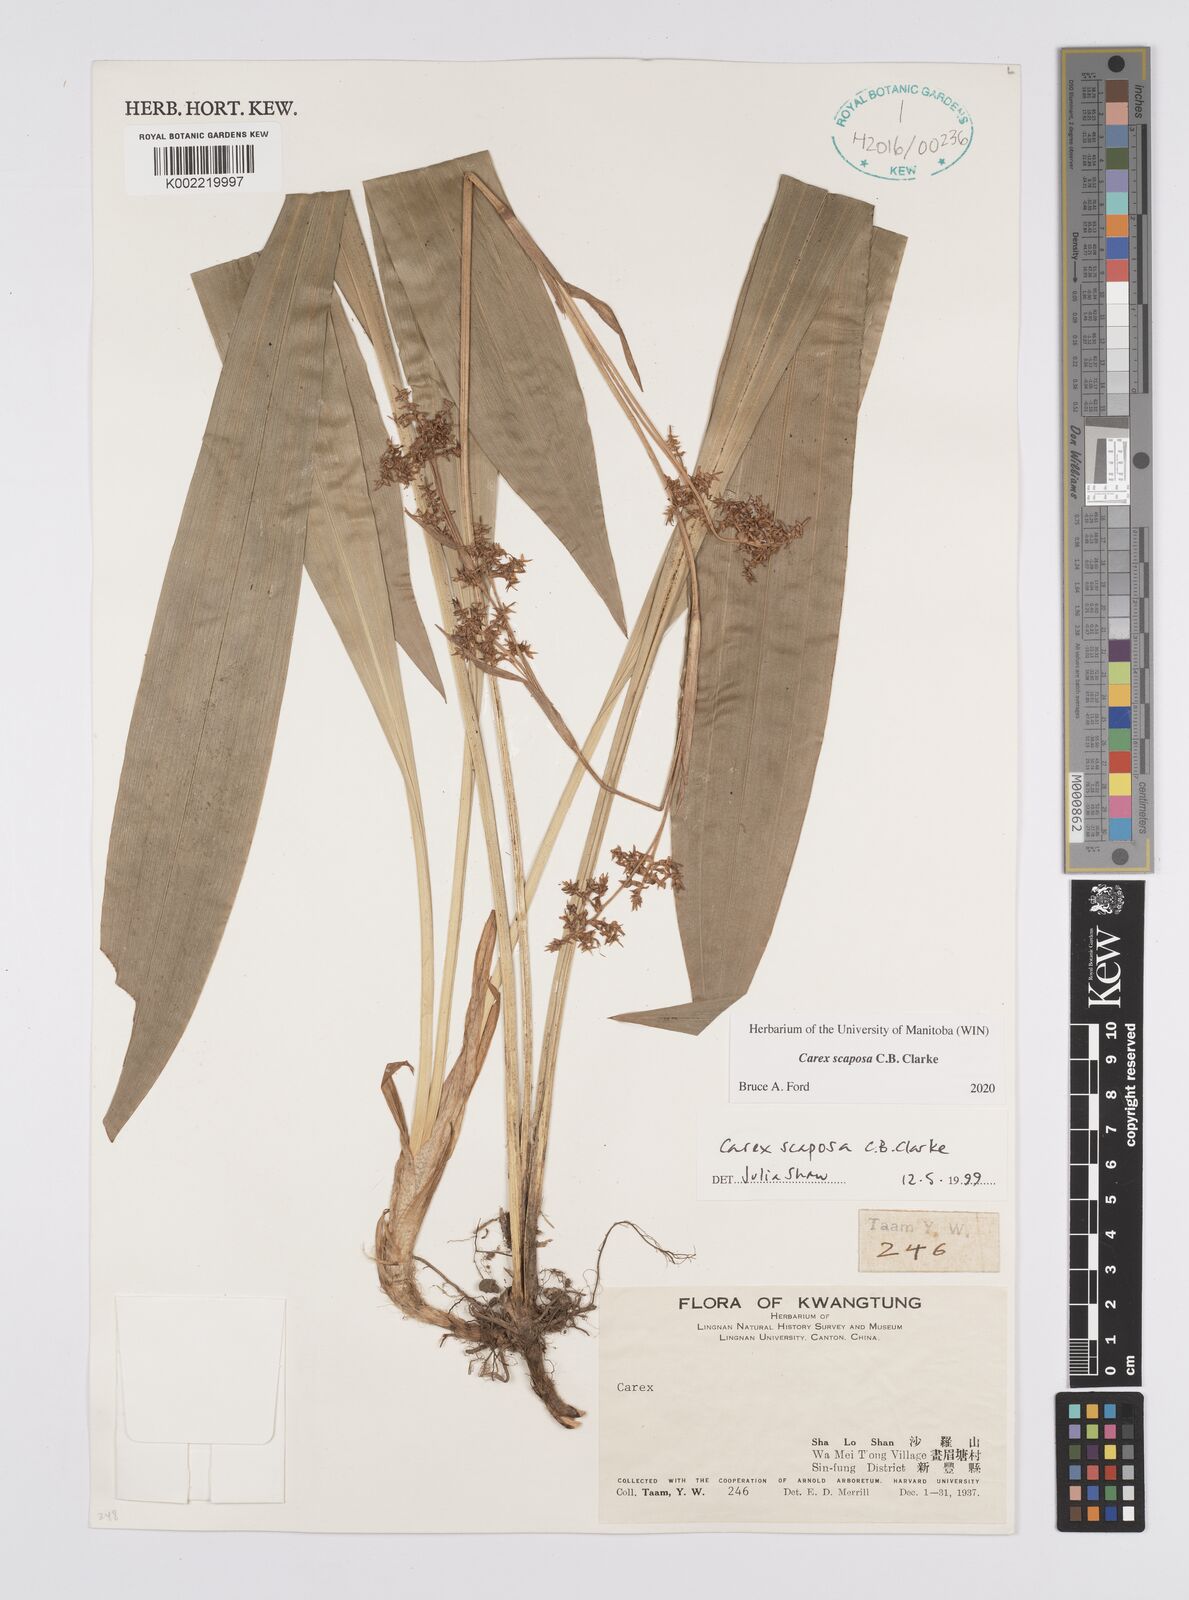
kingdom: Plantae
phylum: Tracheophyta
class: Liliopsida
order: Poales
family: Cyperaceae
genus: Carex
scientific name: Carex scaposa
